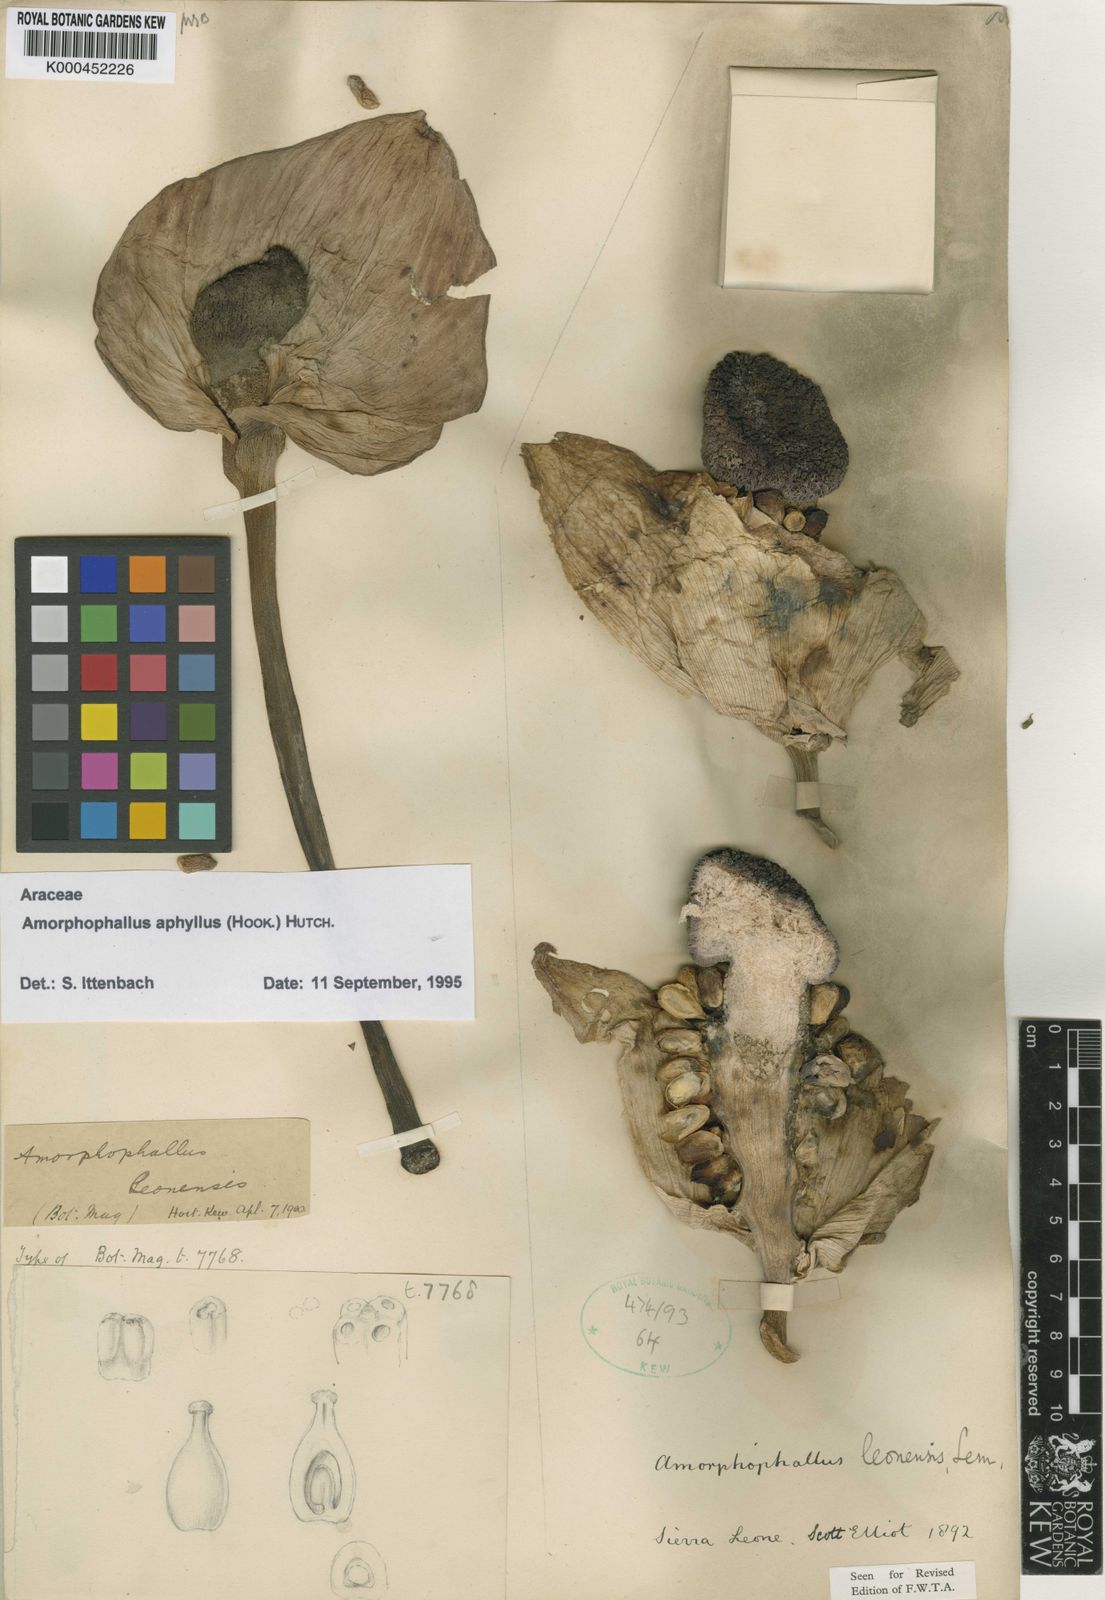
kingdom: Plantae
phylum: Tracheophyta
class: Liliopsida
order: Alismatales
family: Araceae
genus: Amorphophallus
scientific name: Amorphophallus aphyllus
